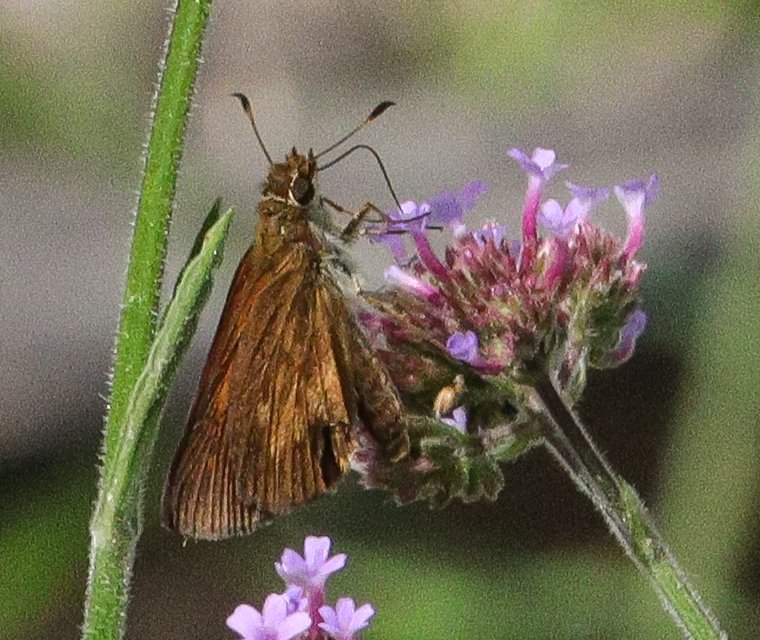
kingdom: Animalia
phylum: Arthropoda
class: Insecta
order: Lepidoptera
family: Hesperiidae
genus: Poanes
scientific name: Poanes viator
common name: Broad-winged Skipper
